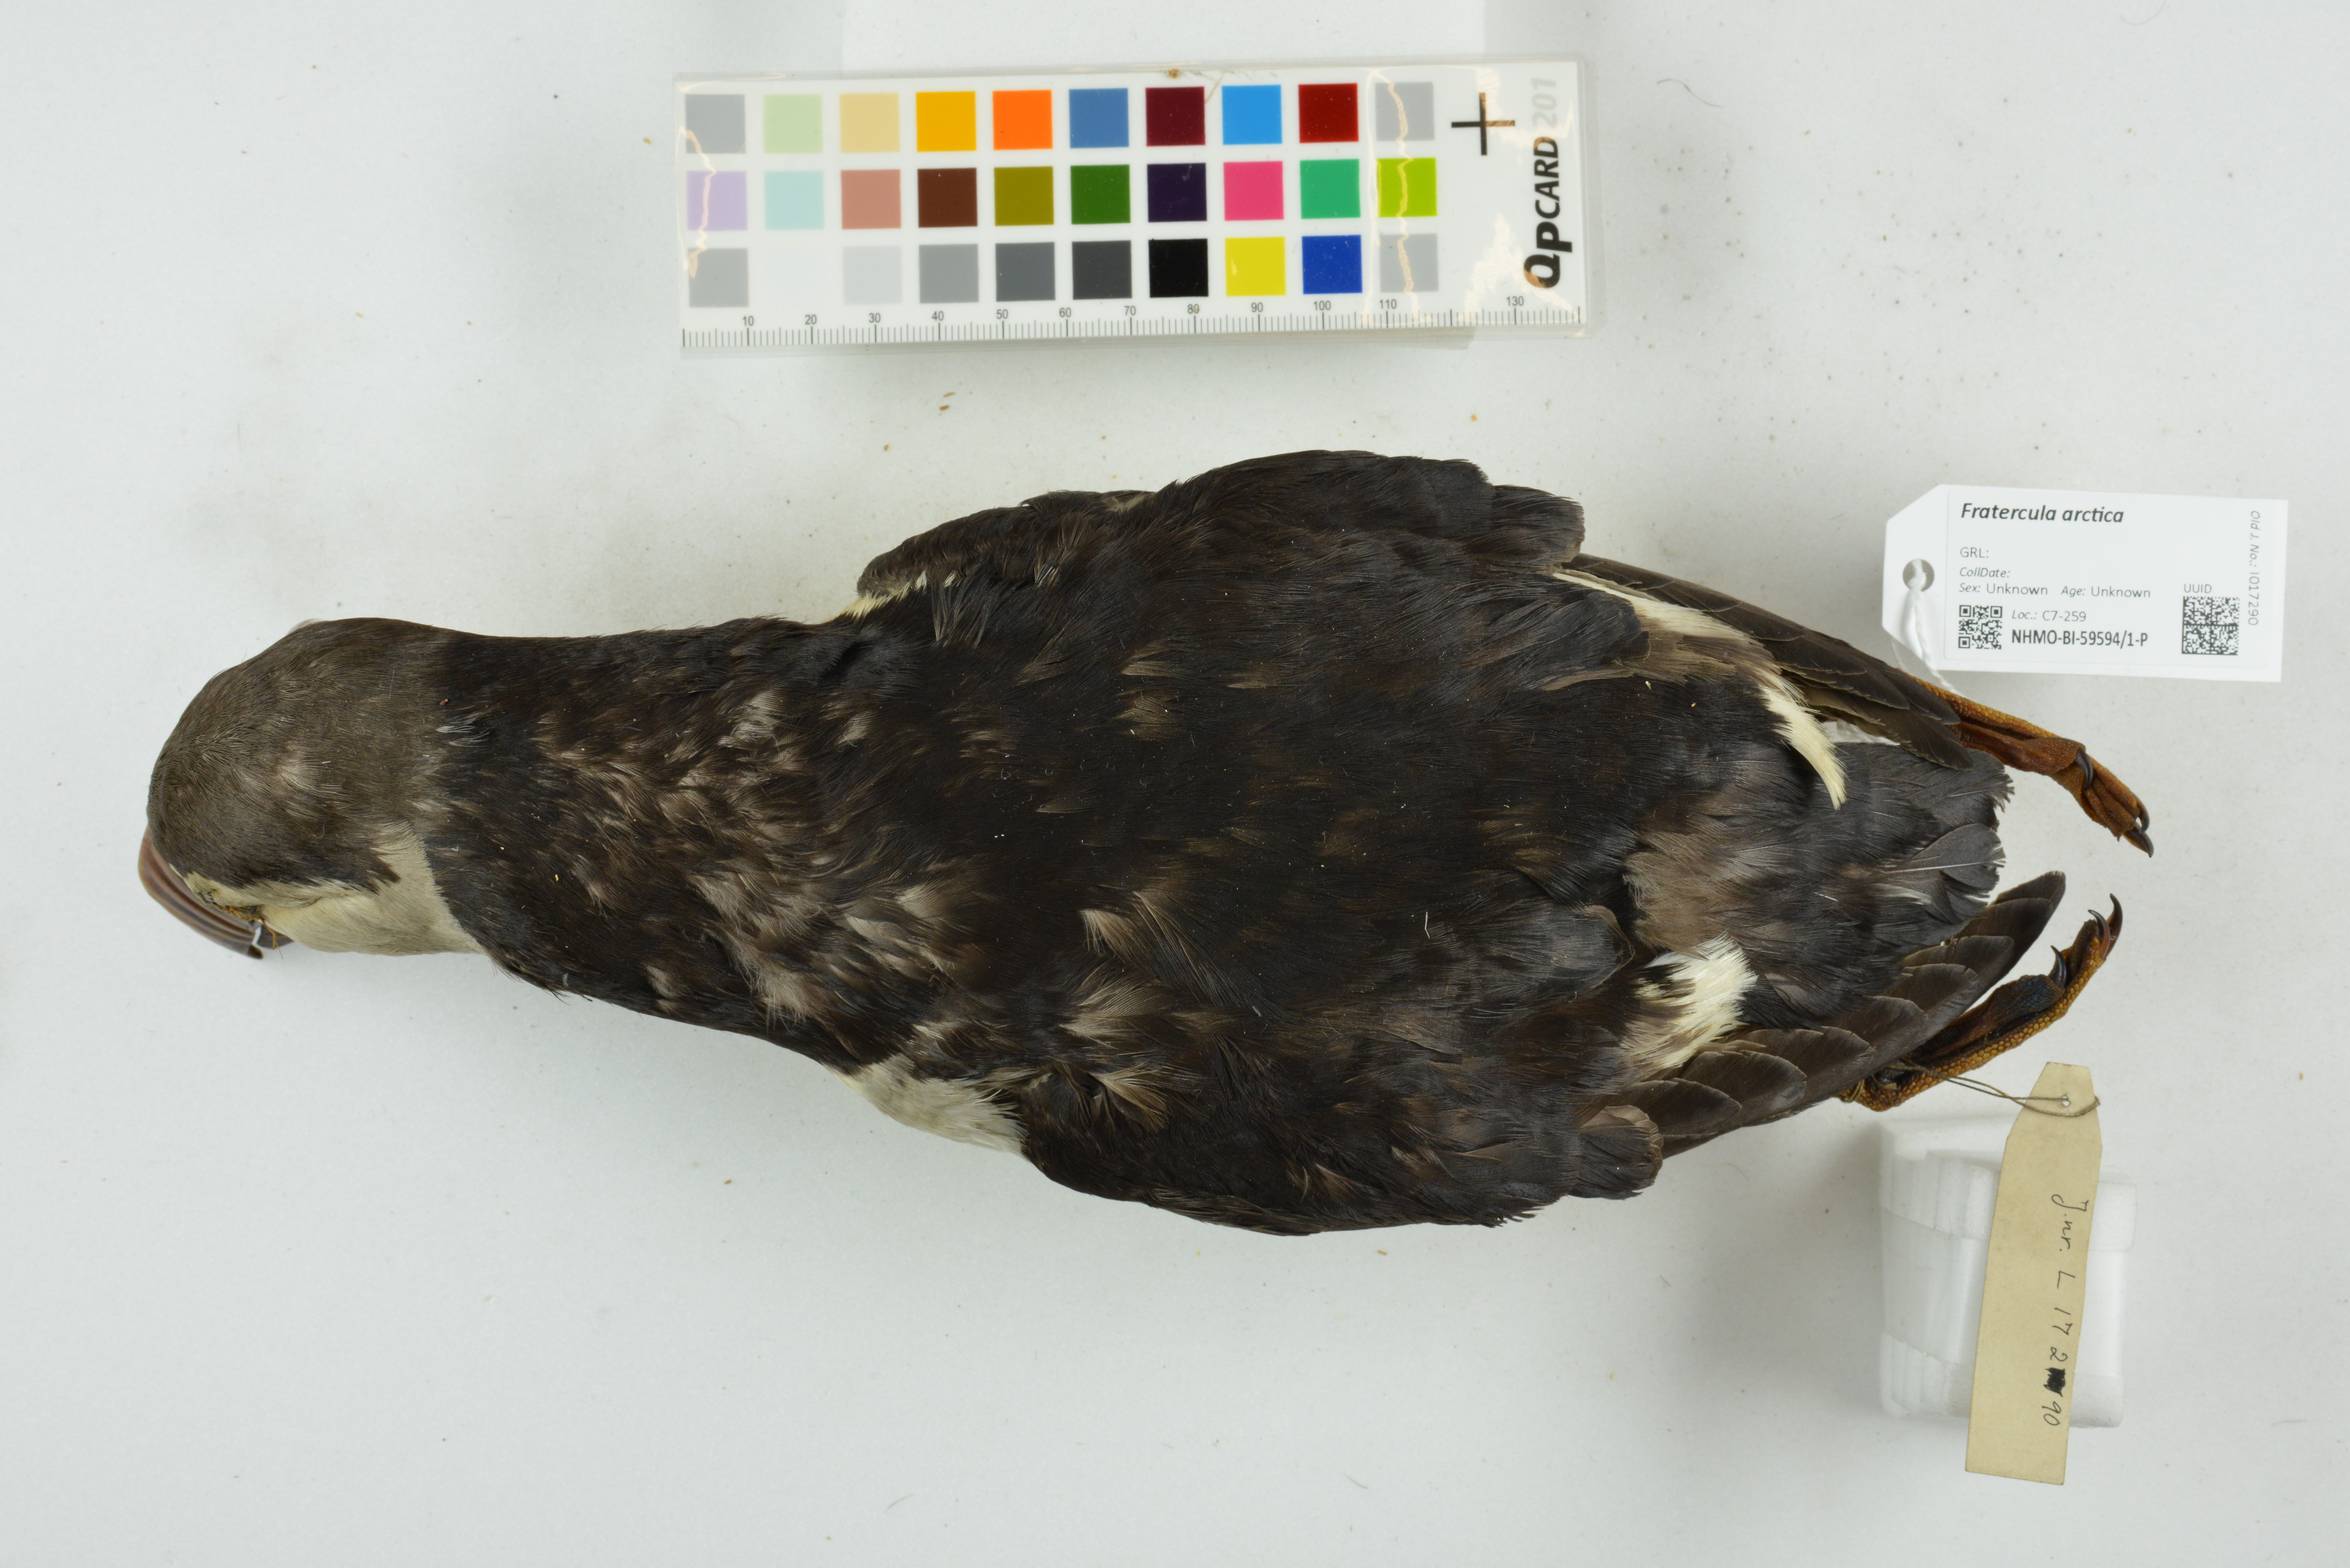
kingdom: Animalia
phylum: Chordata
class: Aves
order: Charadriiformes
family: Alcidae
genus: Fratercula
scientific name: Fratercula arctica
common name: Atlantic puffin
